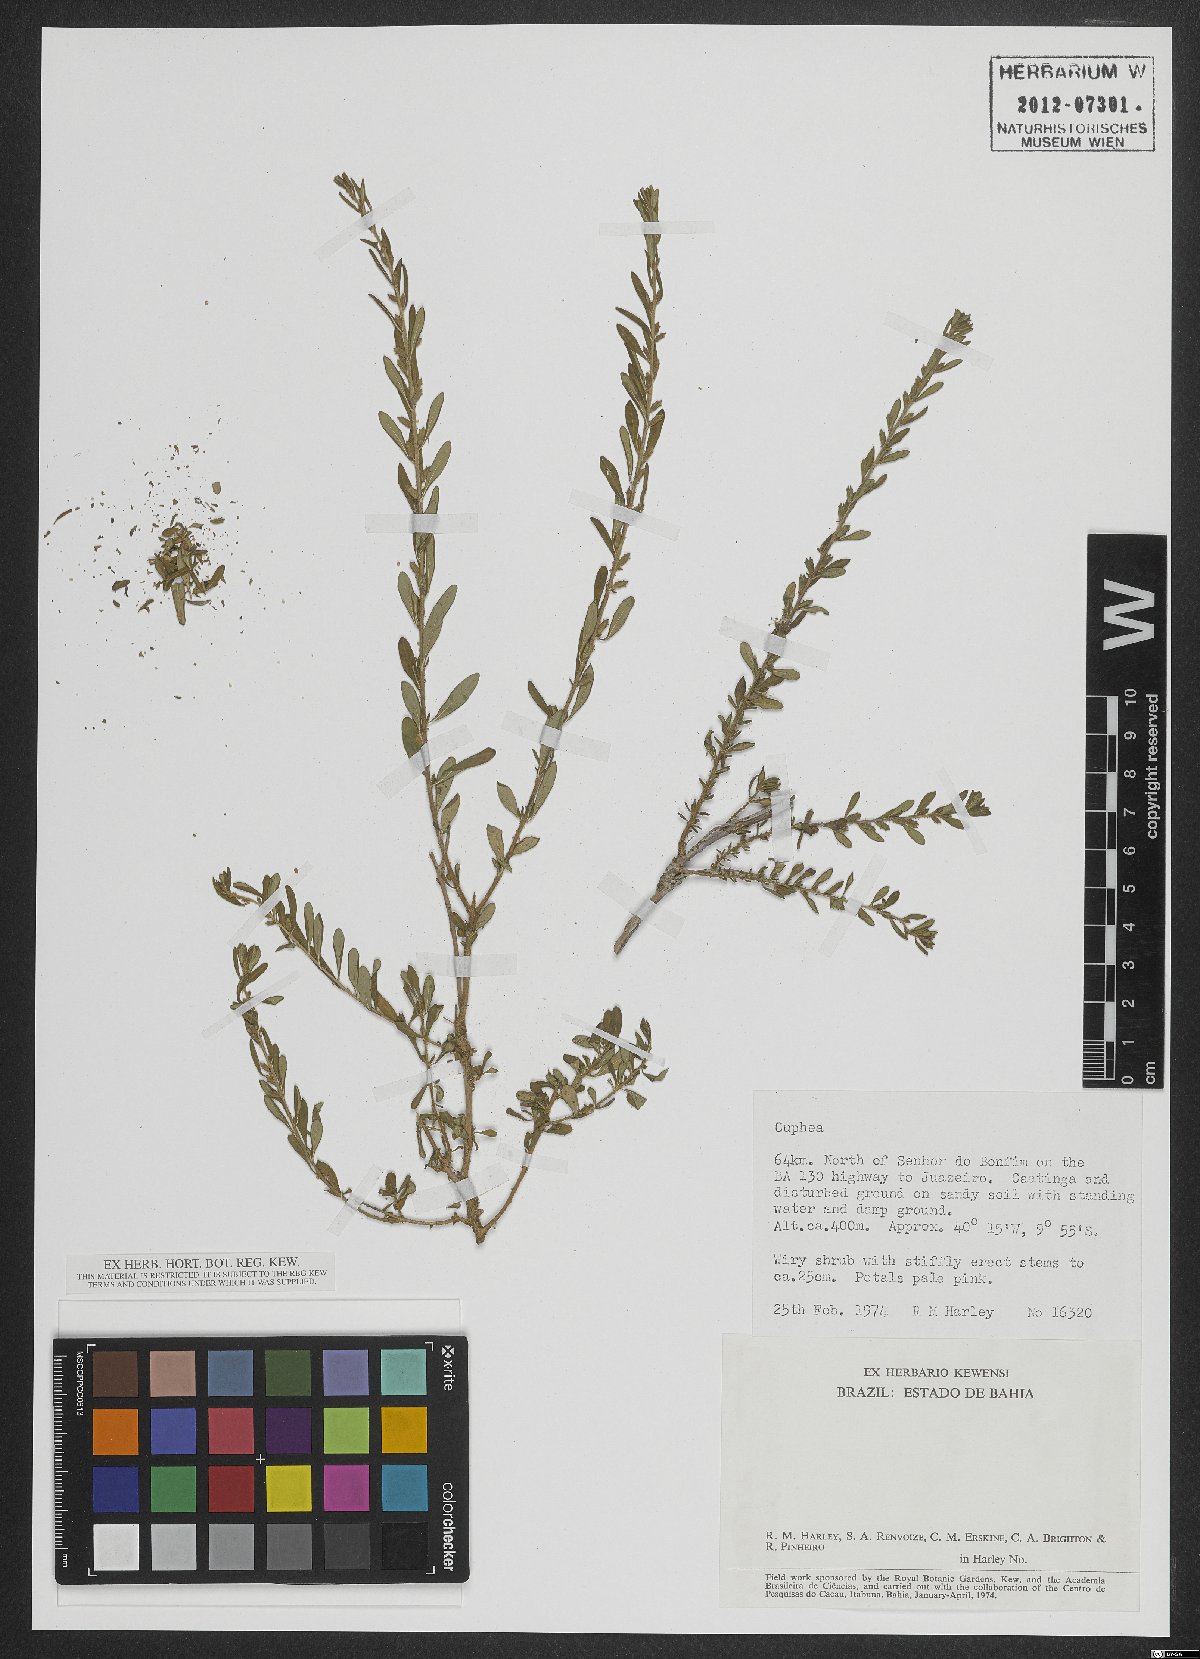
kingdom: Plantae
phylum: Tracheophyta
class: Magnoliopsida
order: Myrtales
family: Lythraceae
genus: Pleurophora
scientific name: Pleurophora anomala
